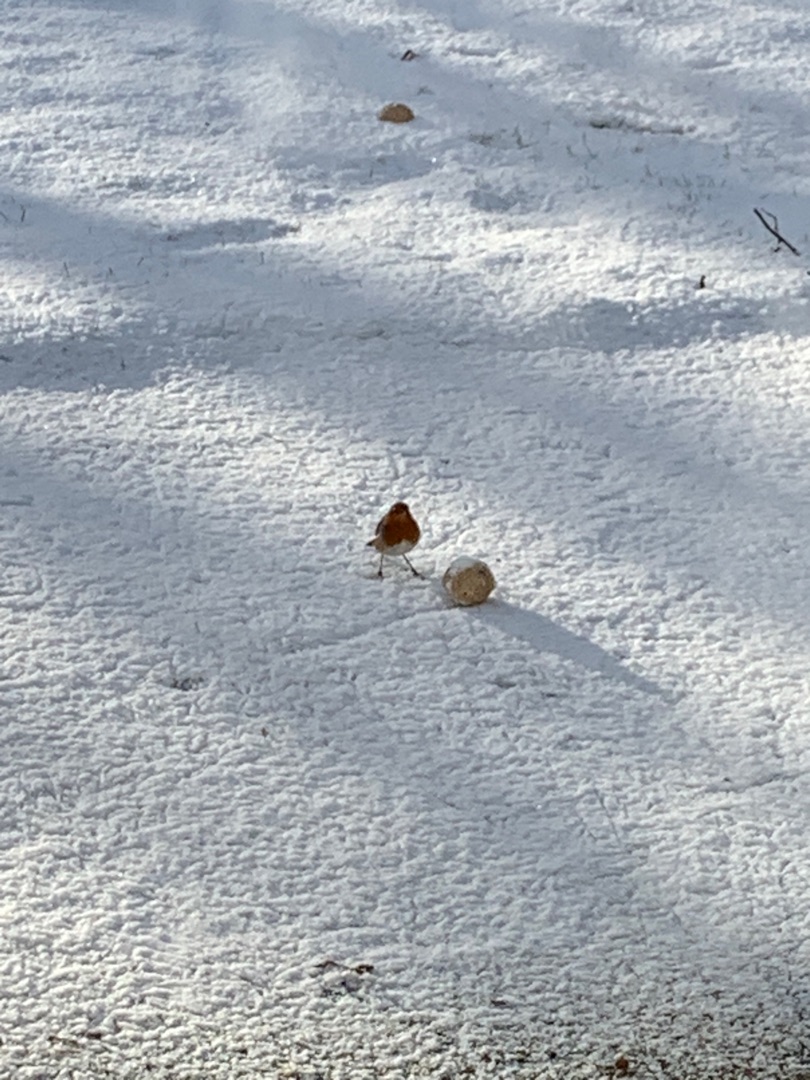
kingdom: Animalia
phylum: Chordata
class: Aves
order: Passeriformes
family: Muscicapidae
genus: Erithacus
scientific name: Erithacus rubecula
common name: Rødhals/rødkælk
